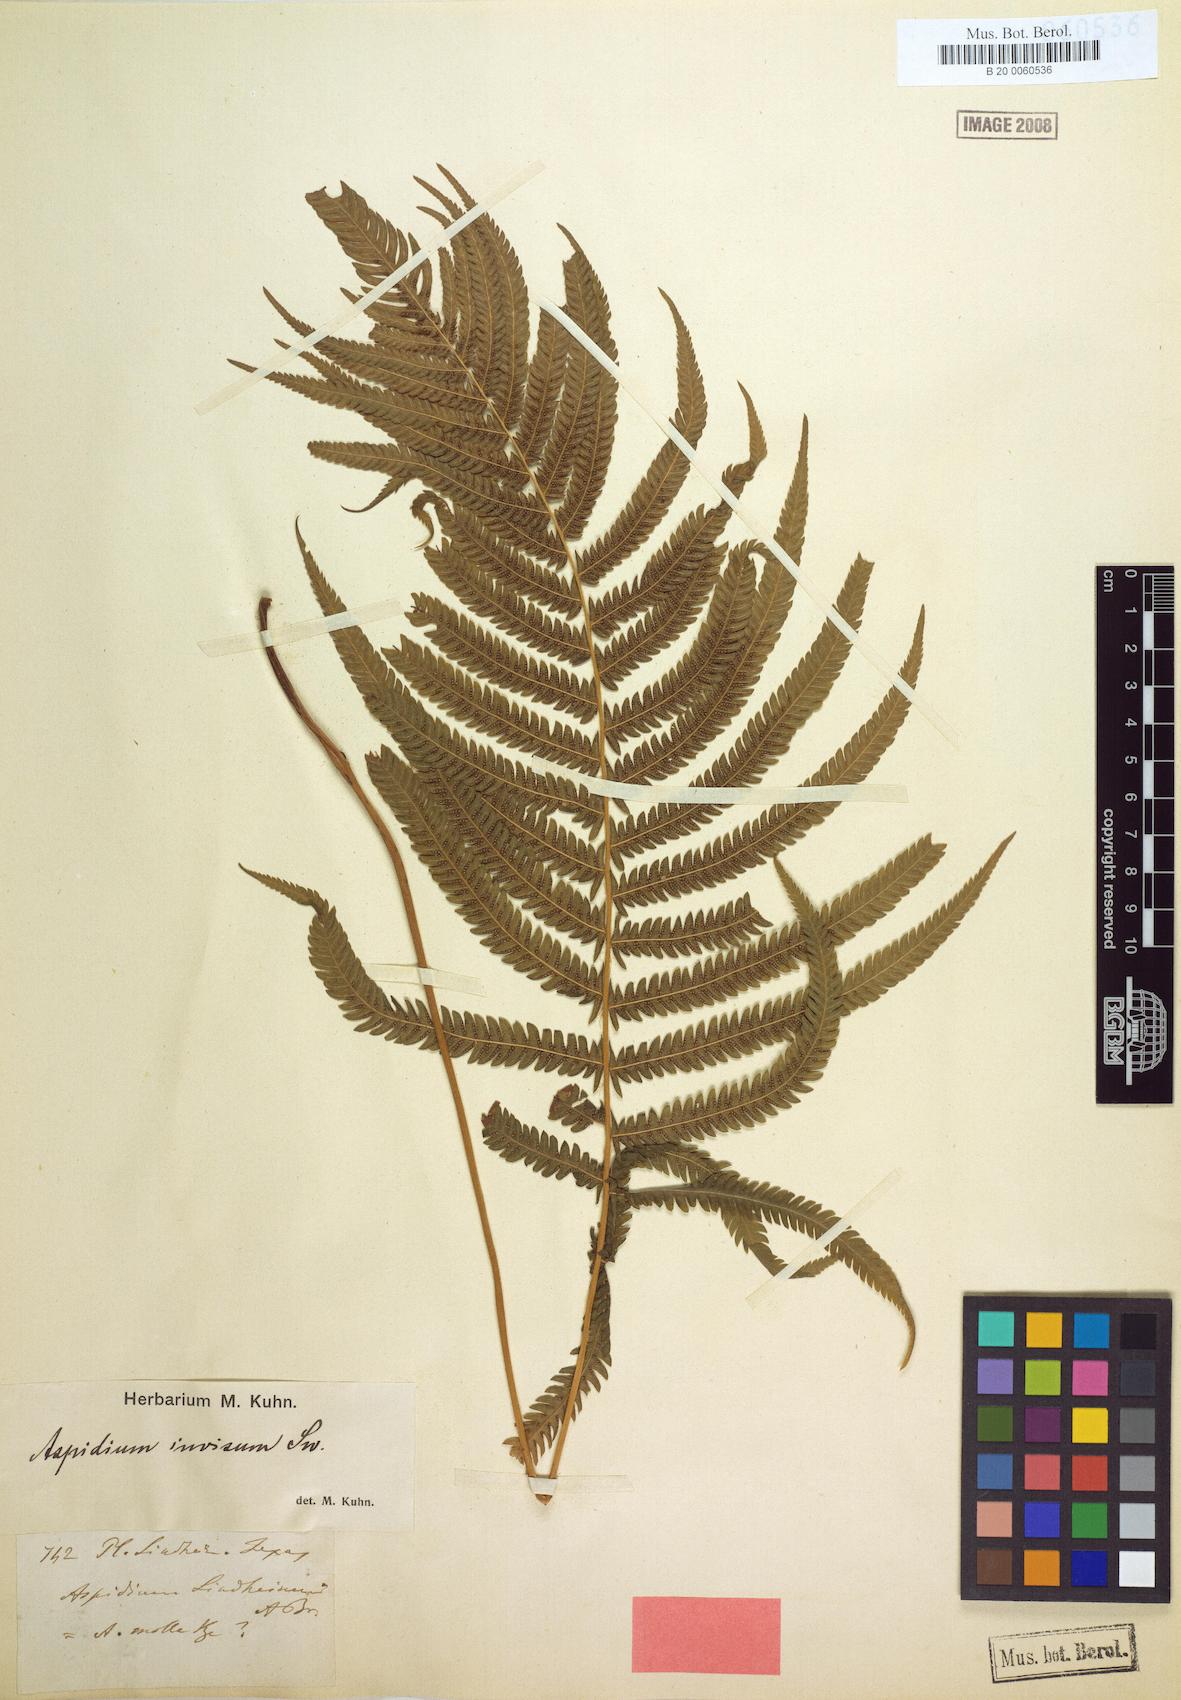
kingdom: Plantae
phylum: Tracheophyta
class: Polypodiopsida
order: Polypodiales
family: Thelypteridaceae
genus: Pelazoneuron
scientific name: Pelazoneuron ovatum
